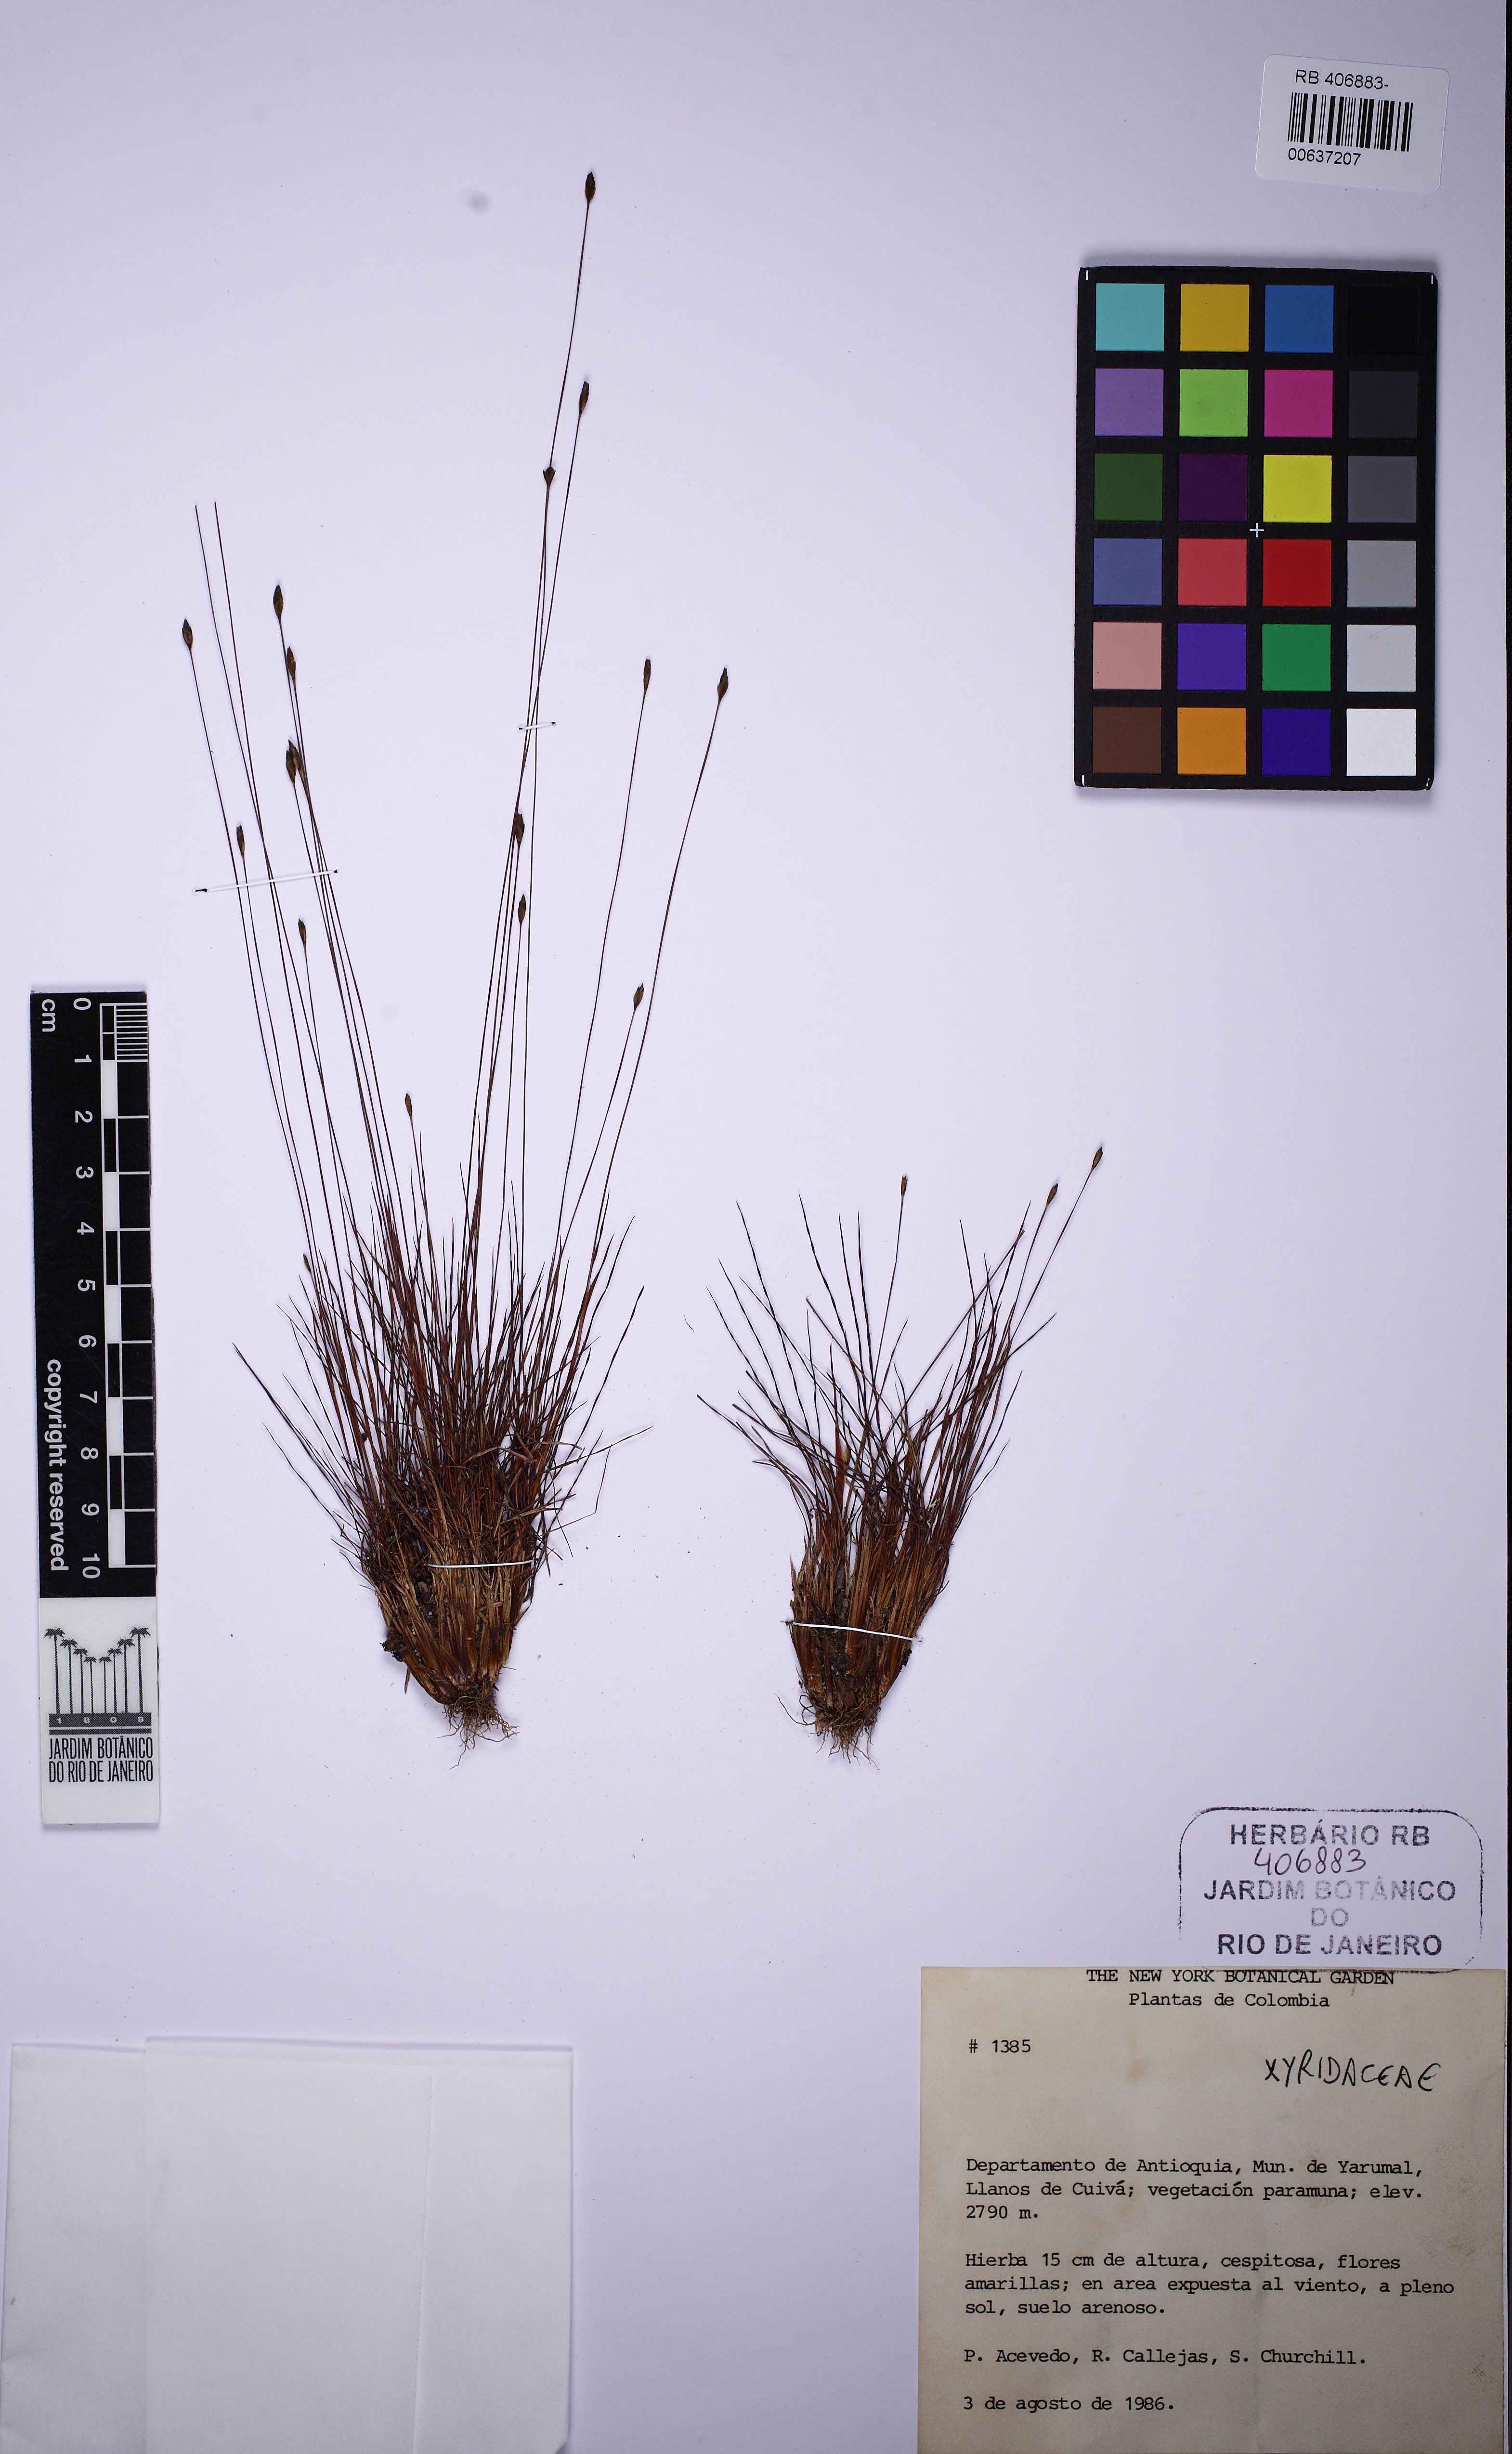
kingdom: Plantae
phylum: Tracheophyta
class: Liliopsida
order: Poales
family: Xyridaceae
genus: Xyris
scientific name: Xyris esmeraldae
